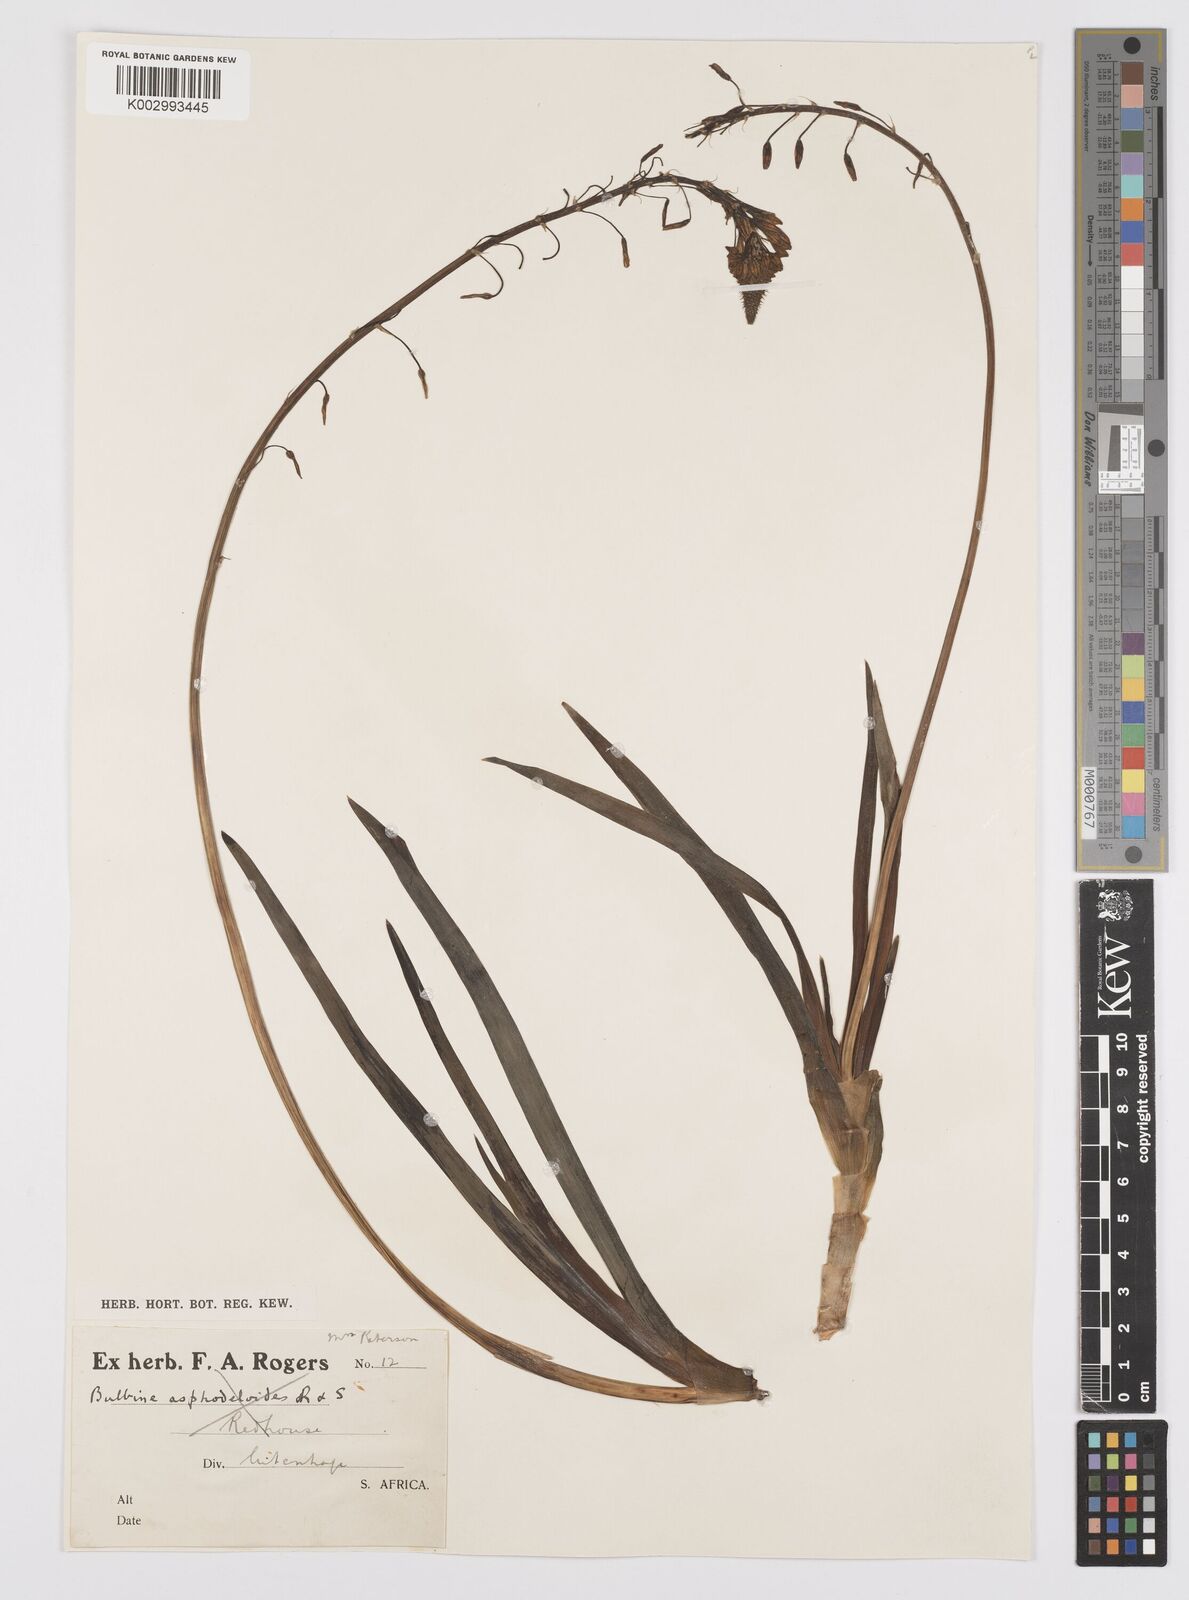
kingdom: Plantae
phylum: Tracheophyta
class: Liliopsida
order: Asparagales
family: Asphodelaceae
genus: Bulbine
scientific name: Bulbine frutescens
